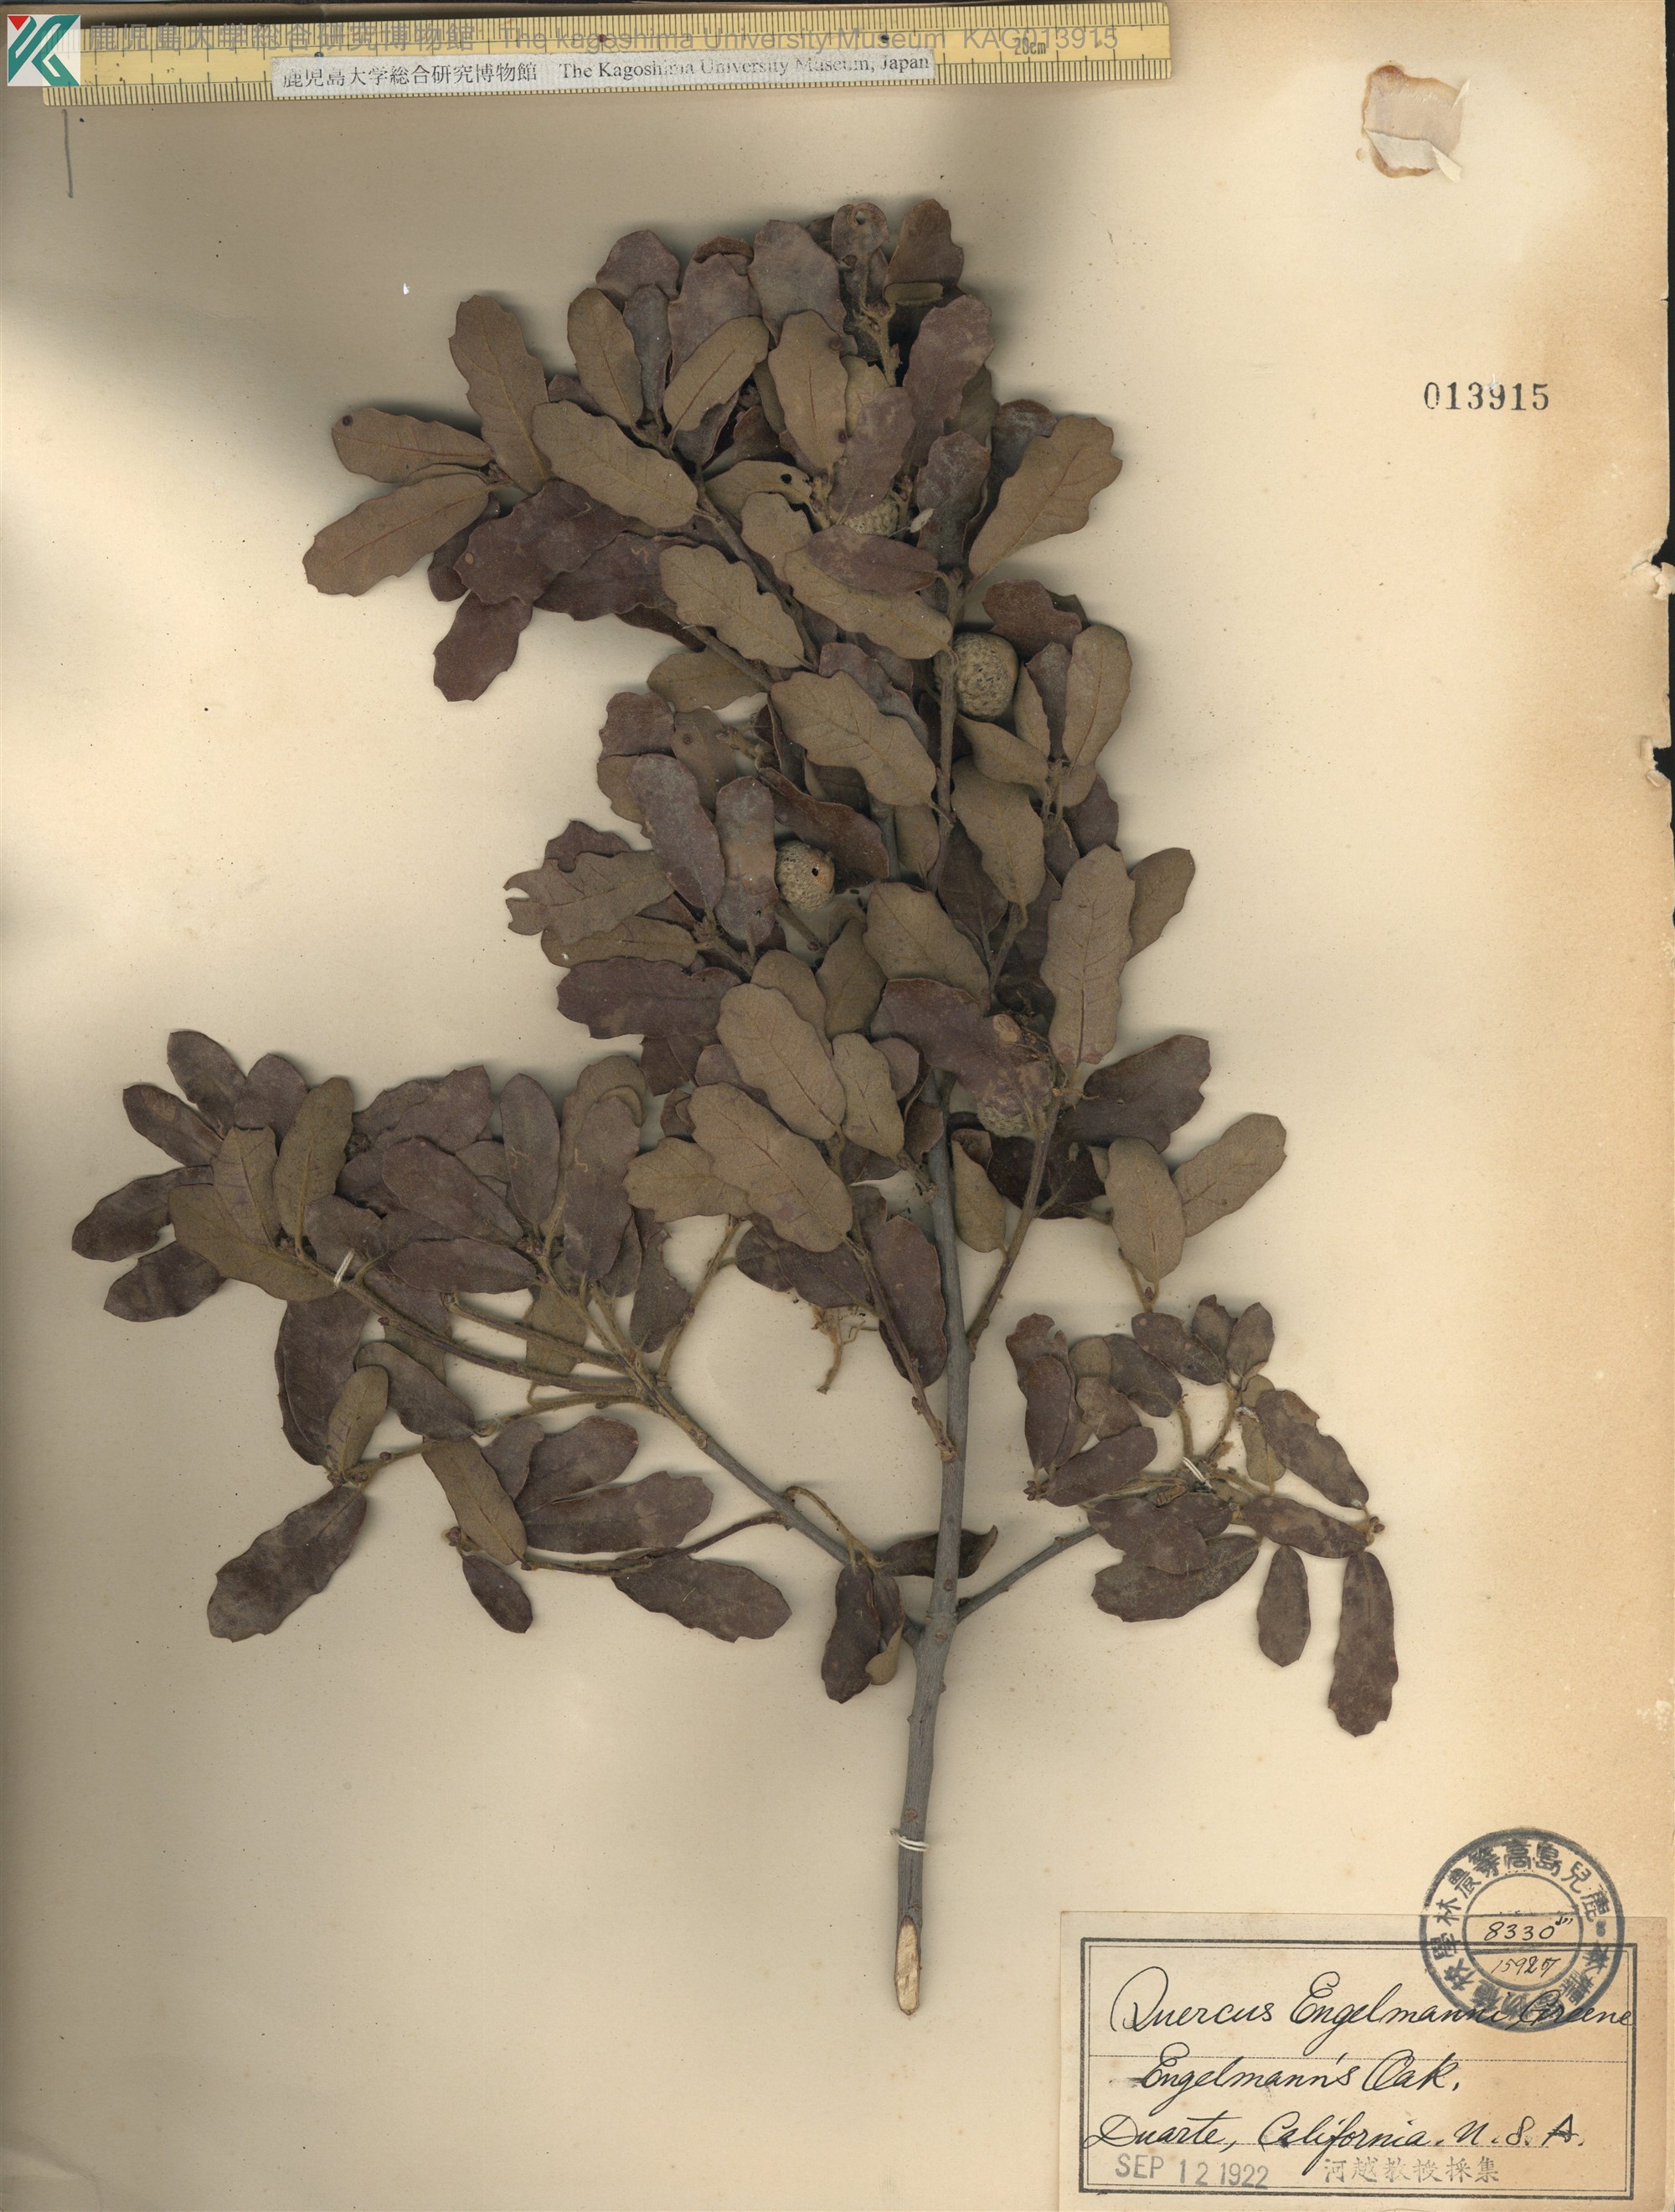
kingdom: Plantae
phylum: Tracheophyta
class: Magnoliopsida
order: Fagales
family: Fagaceae
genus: Quercus
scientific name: Quercus engelmannii
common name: Engelmann oak
